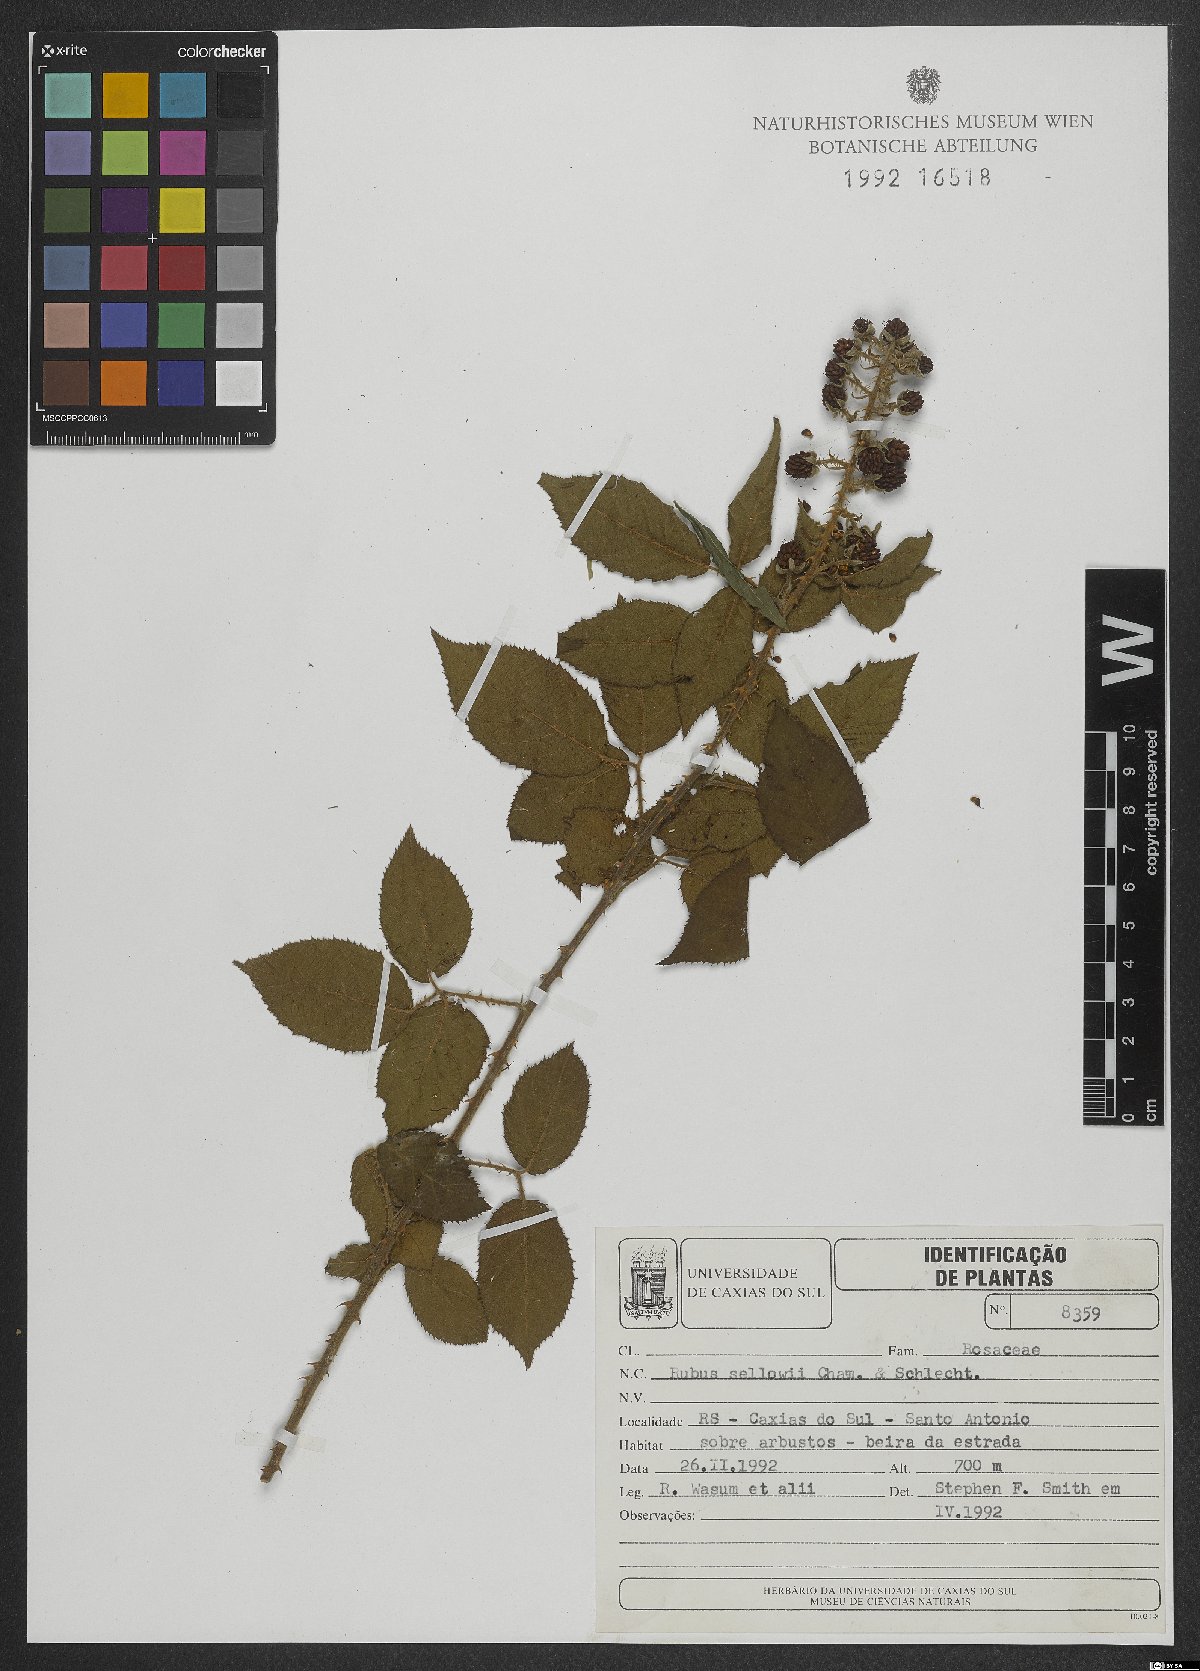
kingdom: Plantae
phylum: Tracheophyta
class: Magnoliopsida
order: Rosales
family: Rosaceae
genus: Rubus
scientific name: Rubus sellowii
